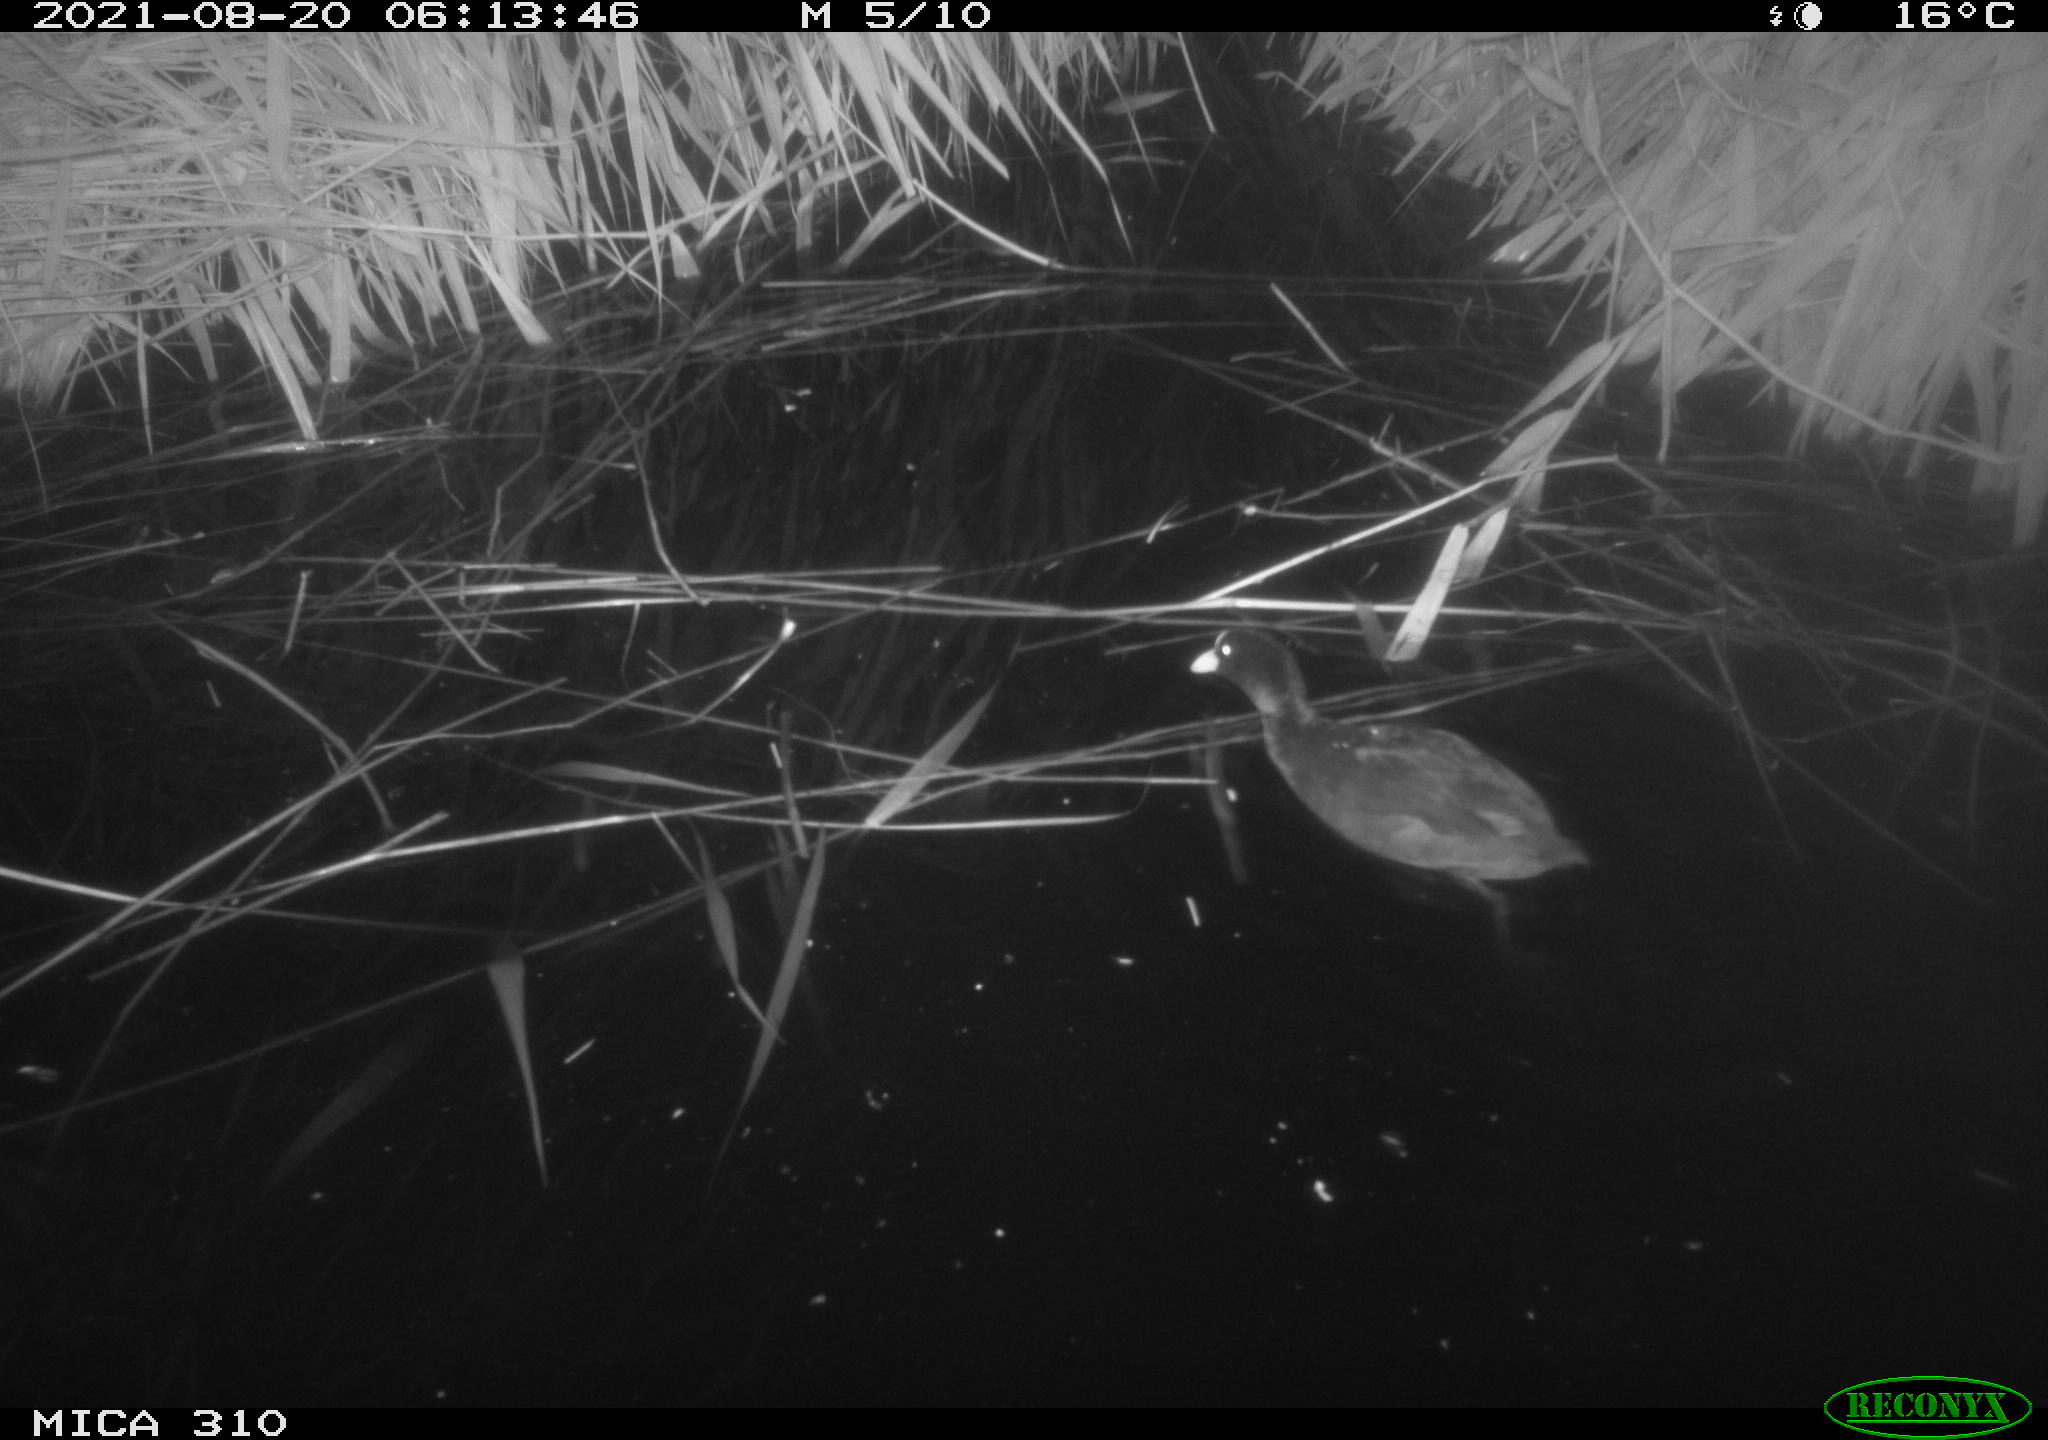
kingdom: Animalia
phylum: Chordata
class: Aves
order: Gruiformes
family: Rallidae
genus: Fulica
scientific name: Fulica atra
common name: Eurasian coot
